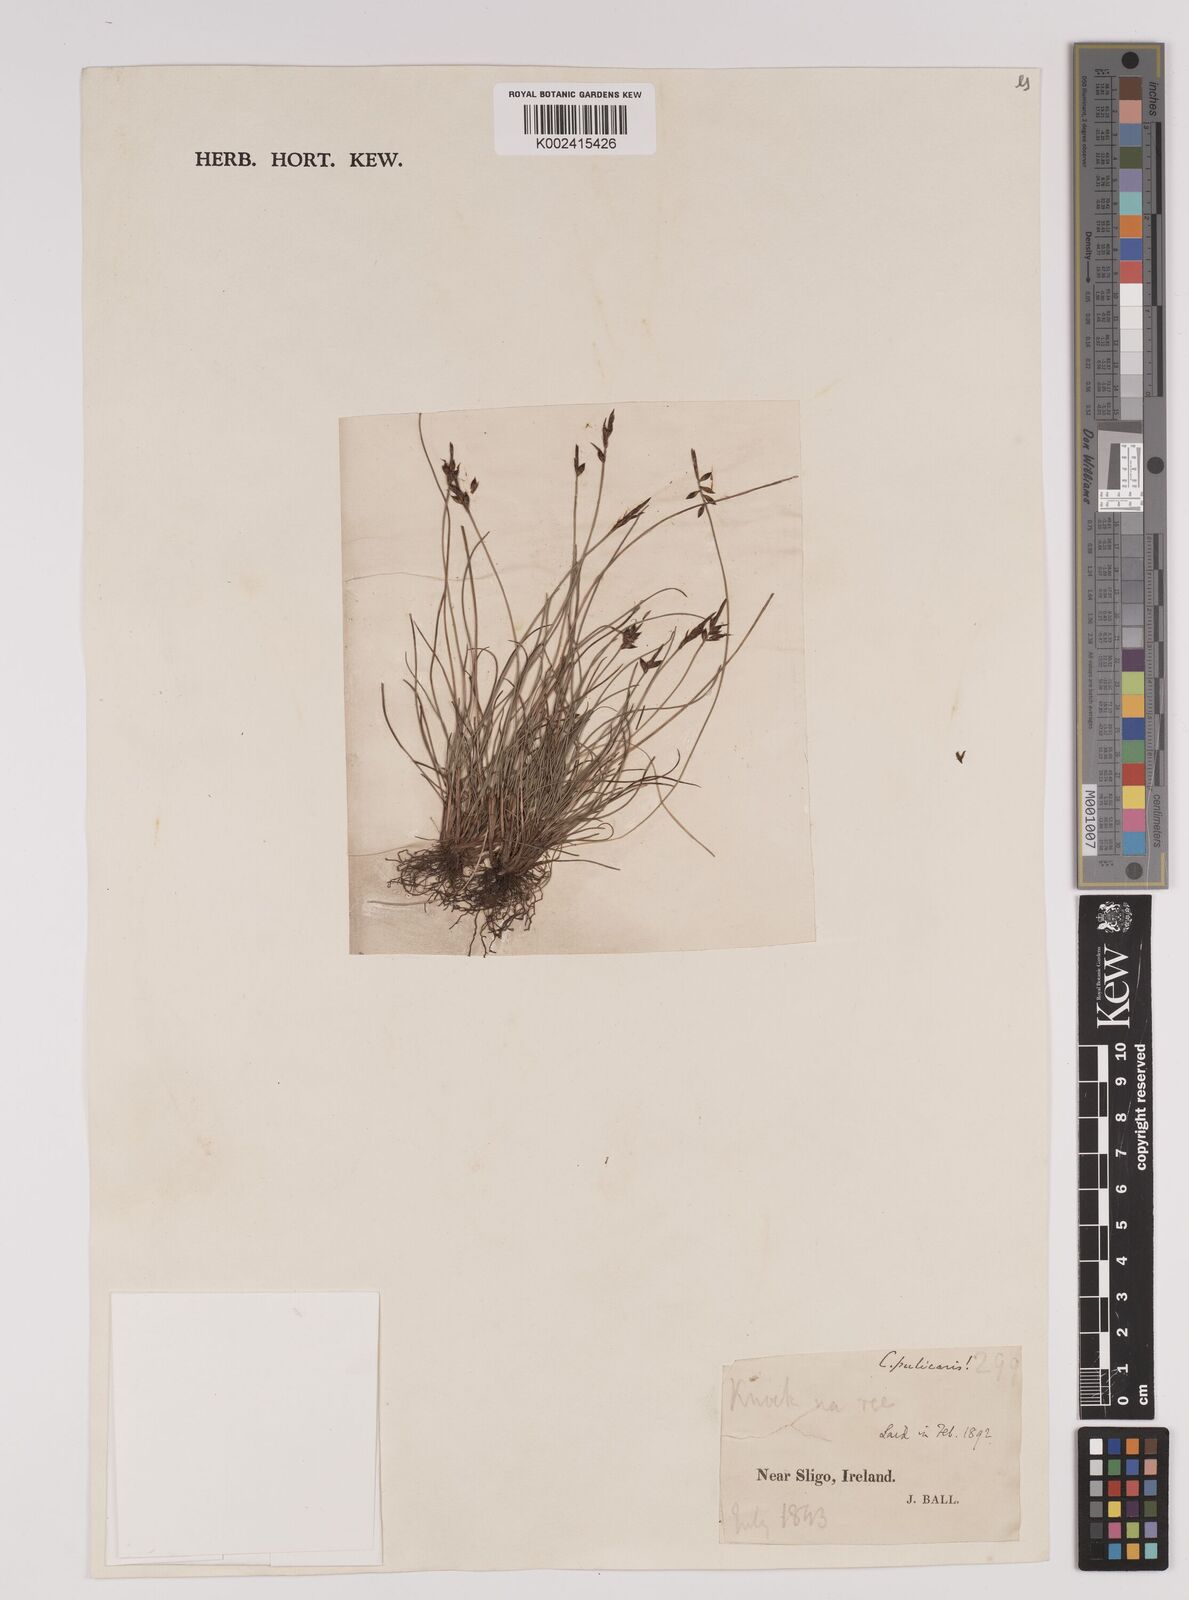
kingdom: Plantae
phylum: Tracheophyta
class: Liliopsida
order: Poales
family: Cyperaceae
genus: Carex
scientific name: Carex pulicaris
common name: Flea sedge
